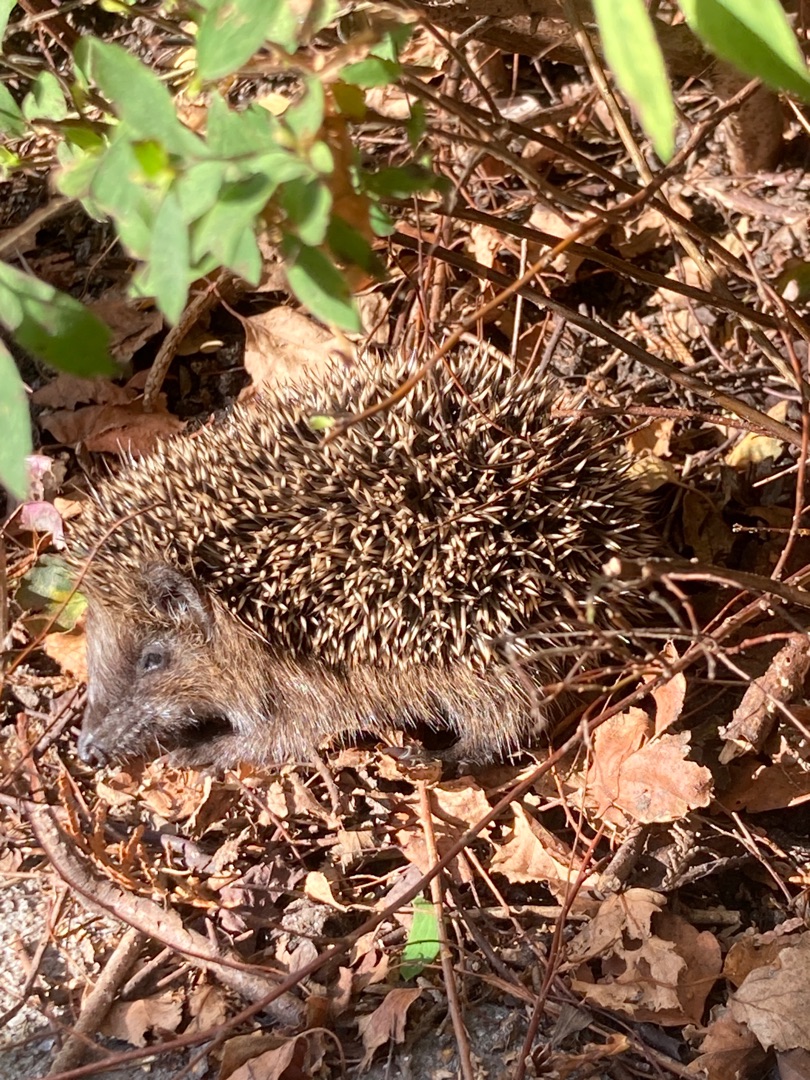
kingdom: Animalia
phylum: Chordata
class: Mammalia
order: Erinaceomorpha
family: Erinaceidae
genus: Erinaceus
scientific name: Erinaceus europaeus
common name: Pindsvin
